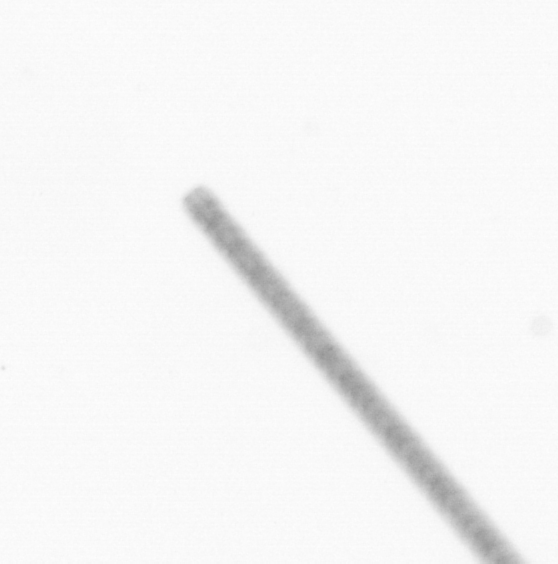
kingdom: Chromista
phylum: Ochrophyta
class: Bacillariophyceae
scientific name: Bacillariophyceae
